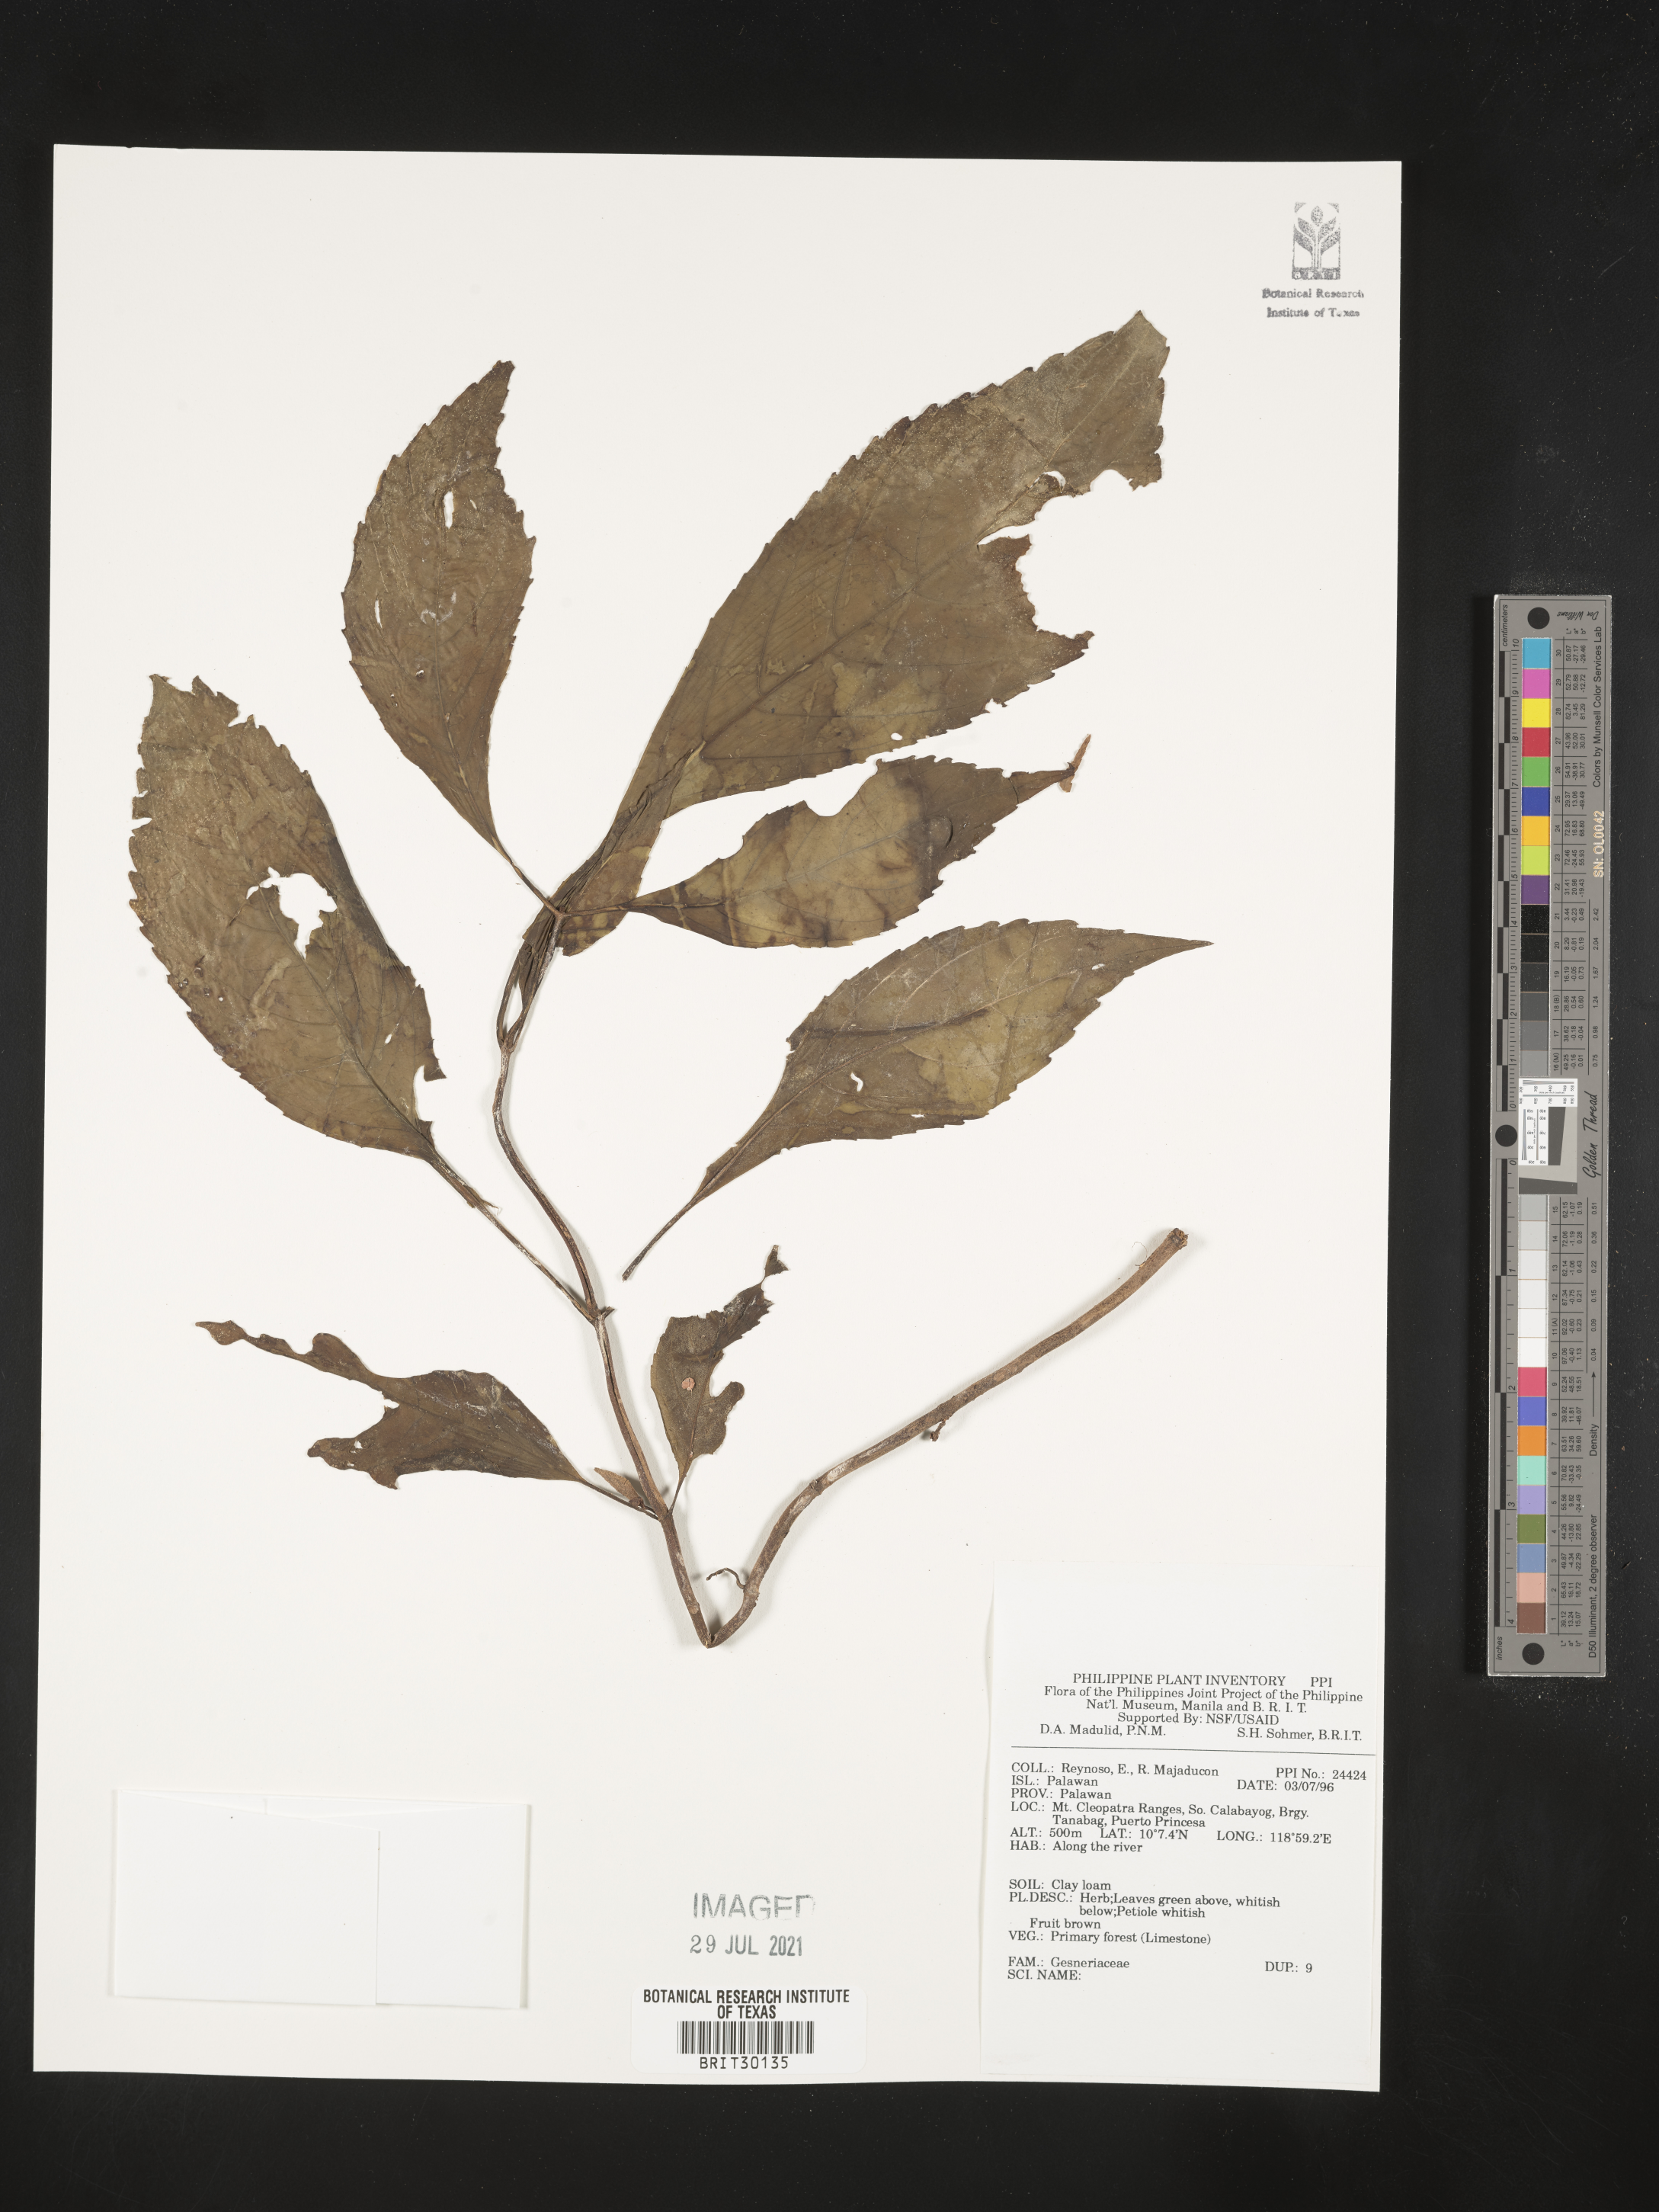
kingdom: Plantae
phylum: Tracheophyta
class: Magnoliopsida
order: Lamiales
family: Gesneriaceae
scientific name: Gesneriaceae
